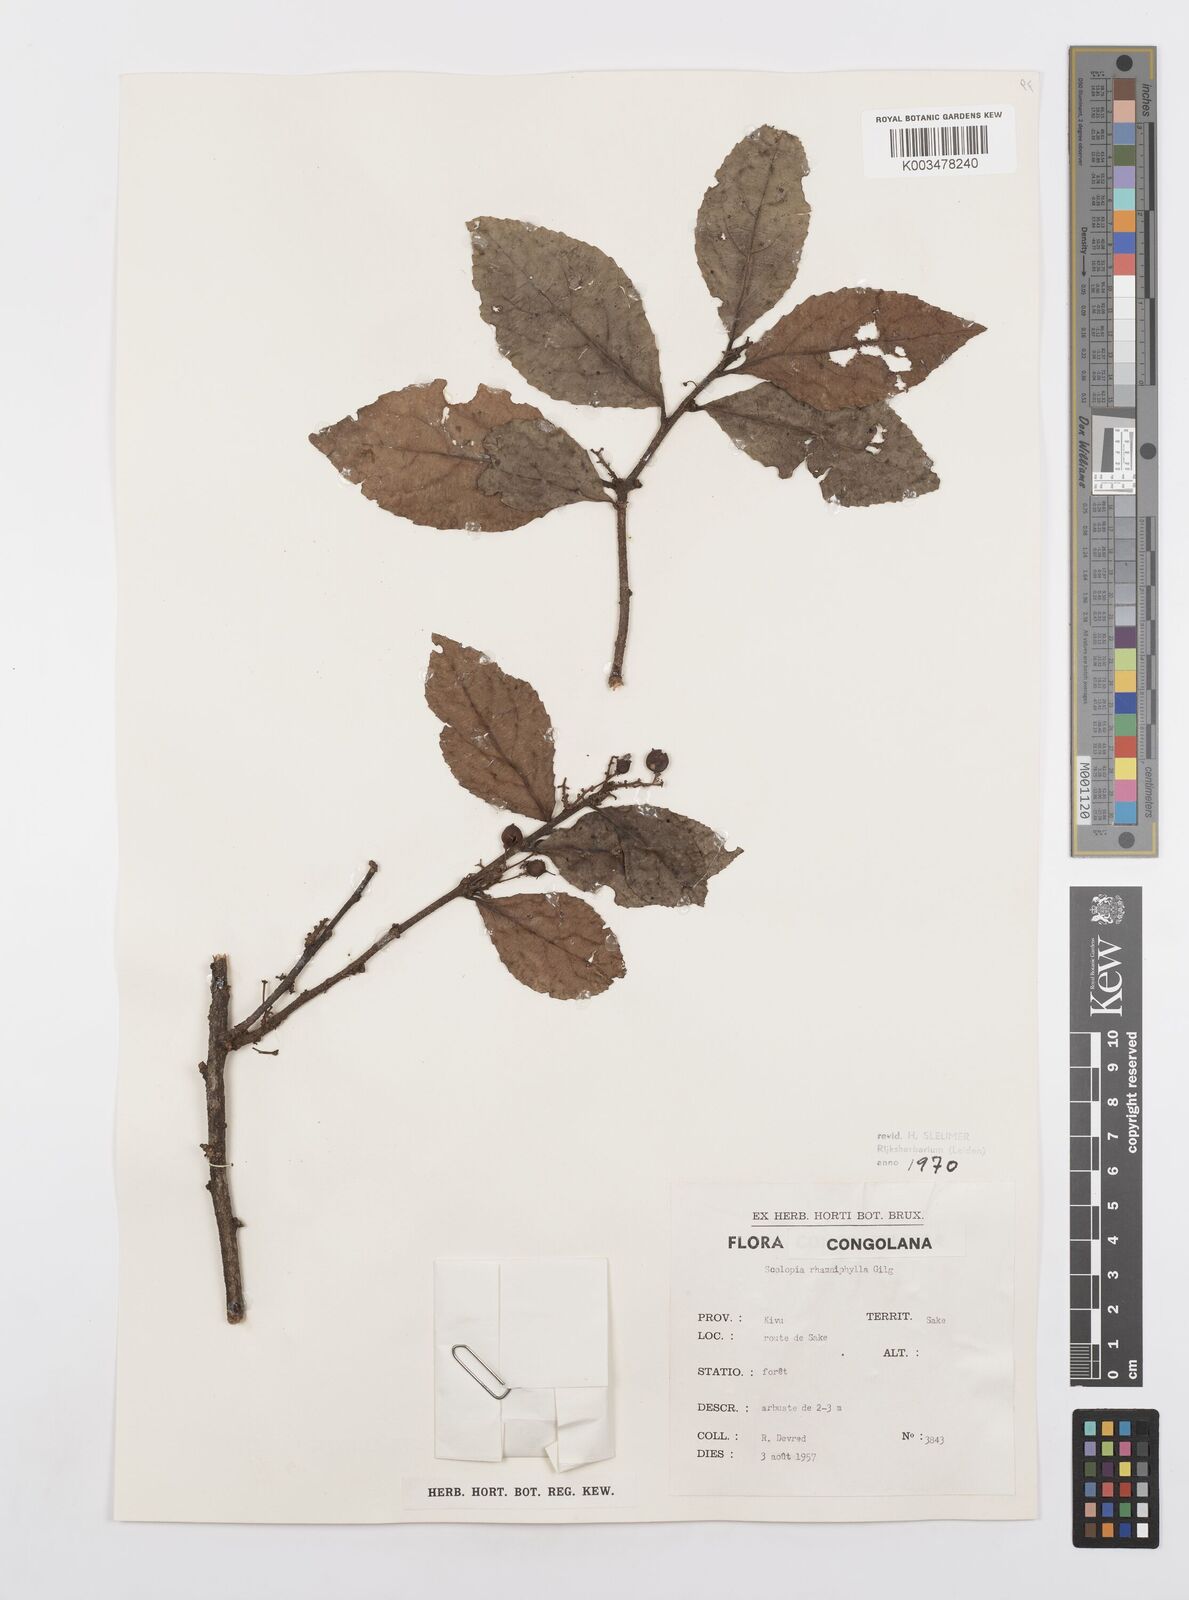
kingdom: Plantae
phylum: Tracheophyta
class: Magnoliopsida
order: Malpighiales
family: Salicaceae
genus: Scolopia
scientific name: Scolopia rhamniphylla
